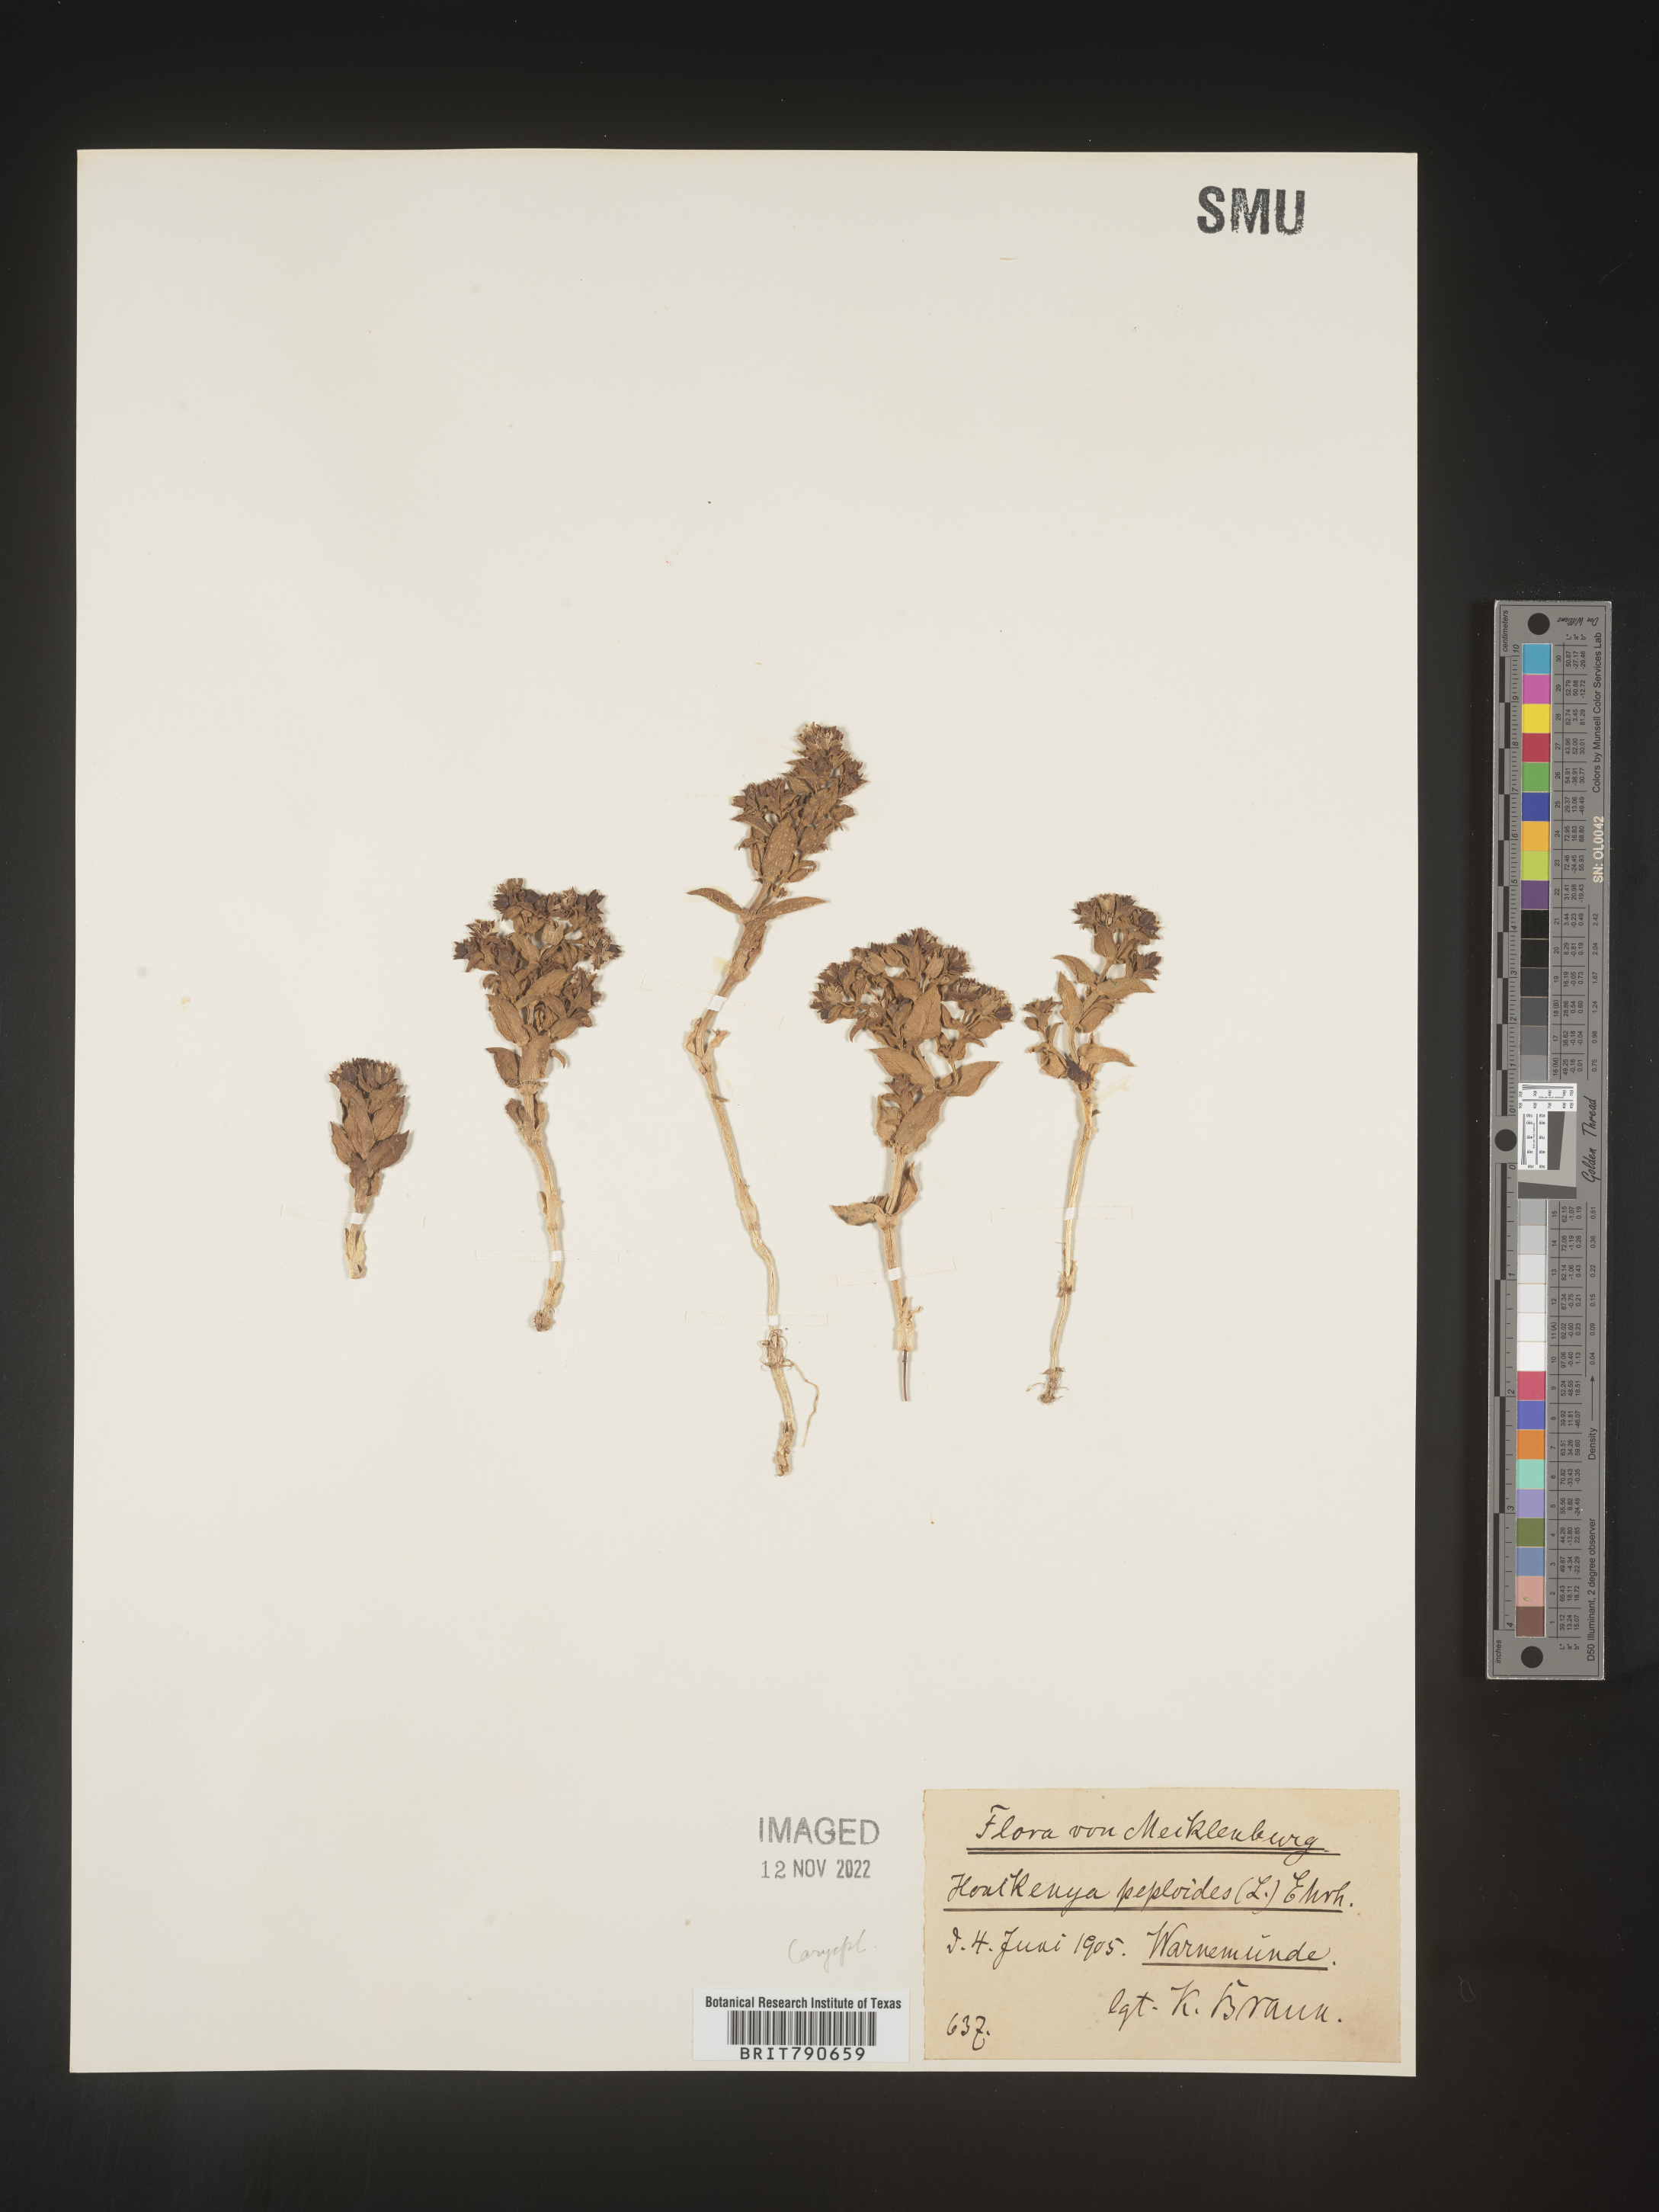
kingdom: Plantae
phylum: Tracheophyta
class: Magnoliopsida
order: Malvales
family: Malvaceae
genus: Clappertonia
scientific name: Clappertonia
